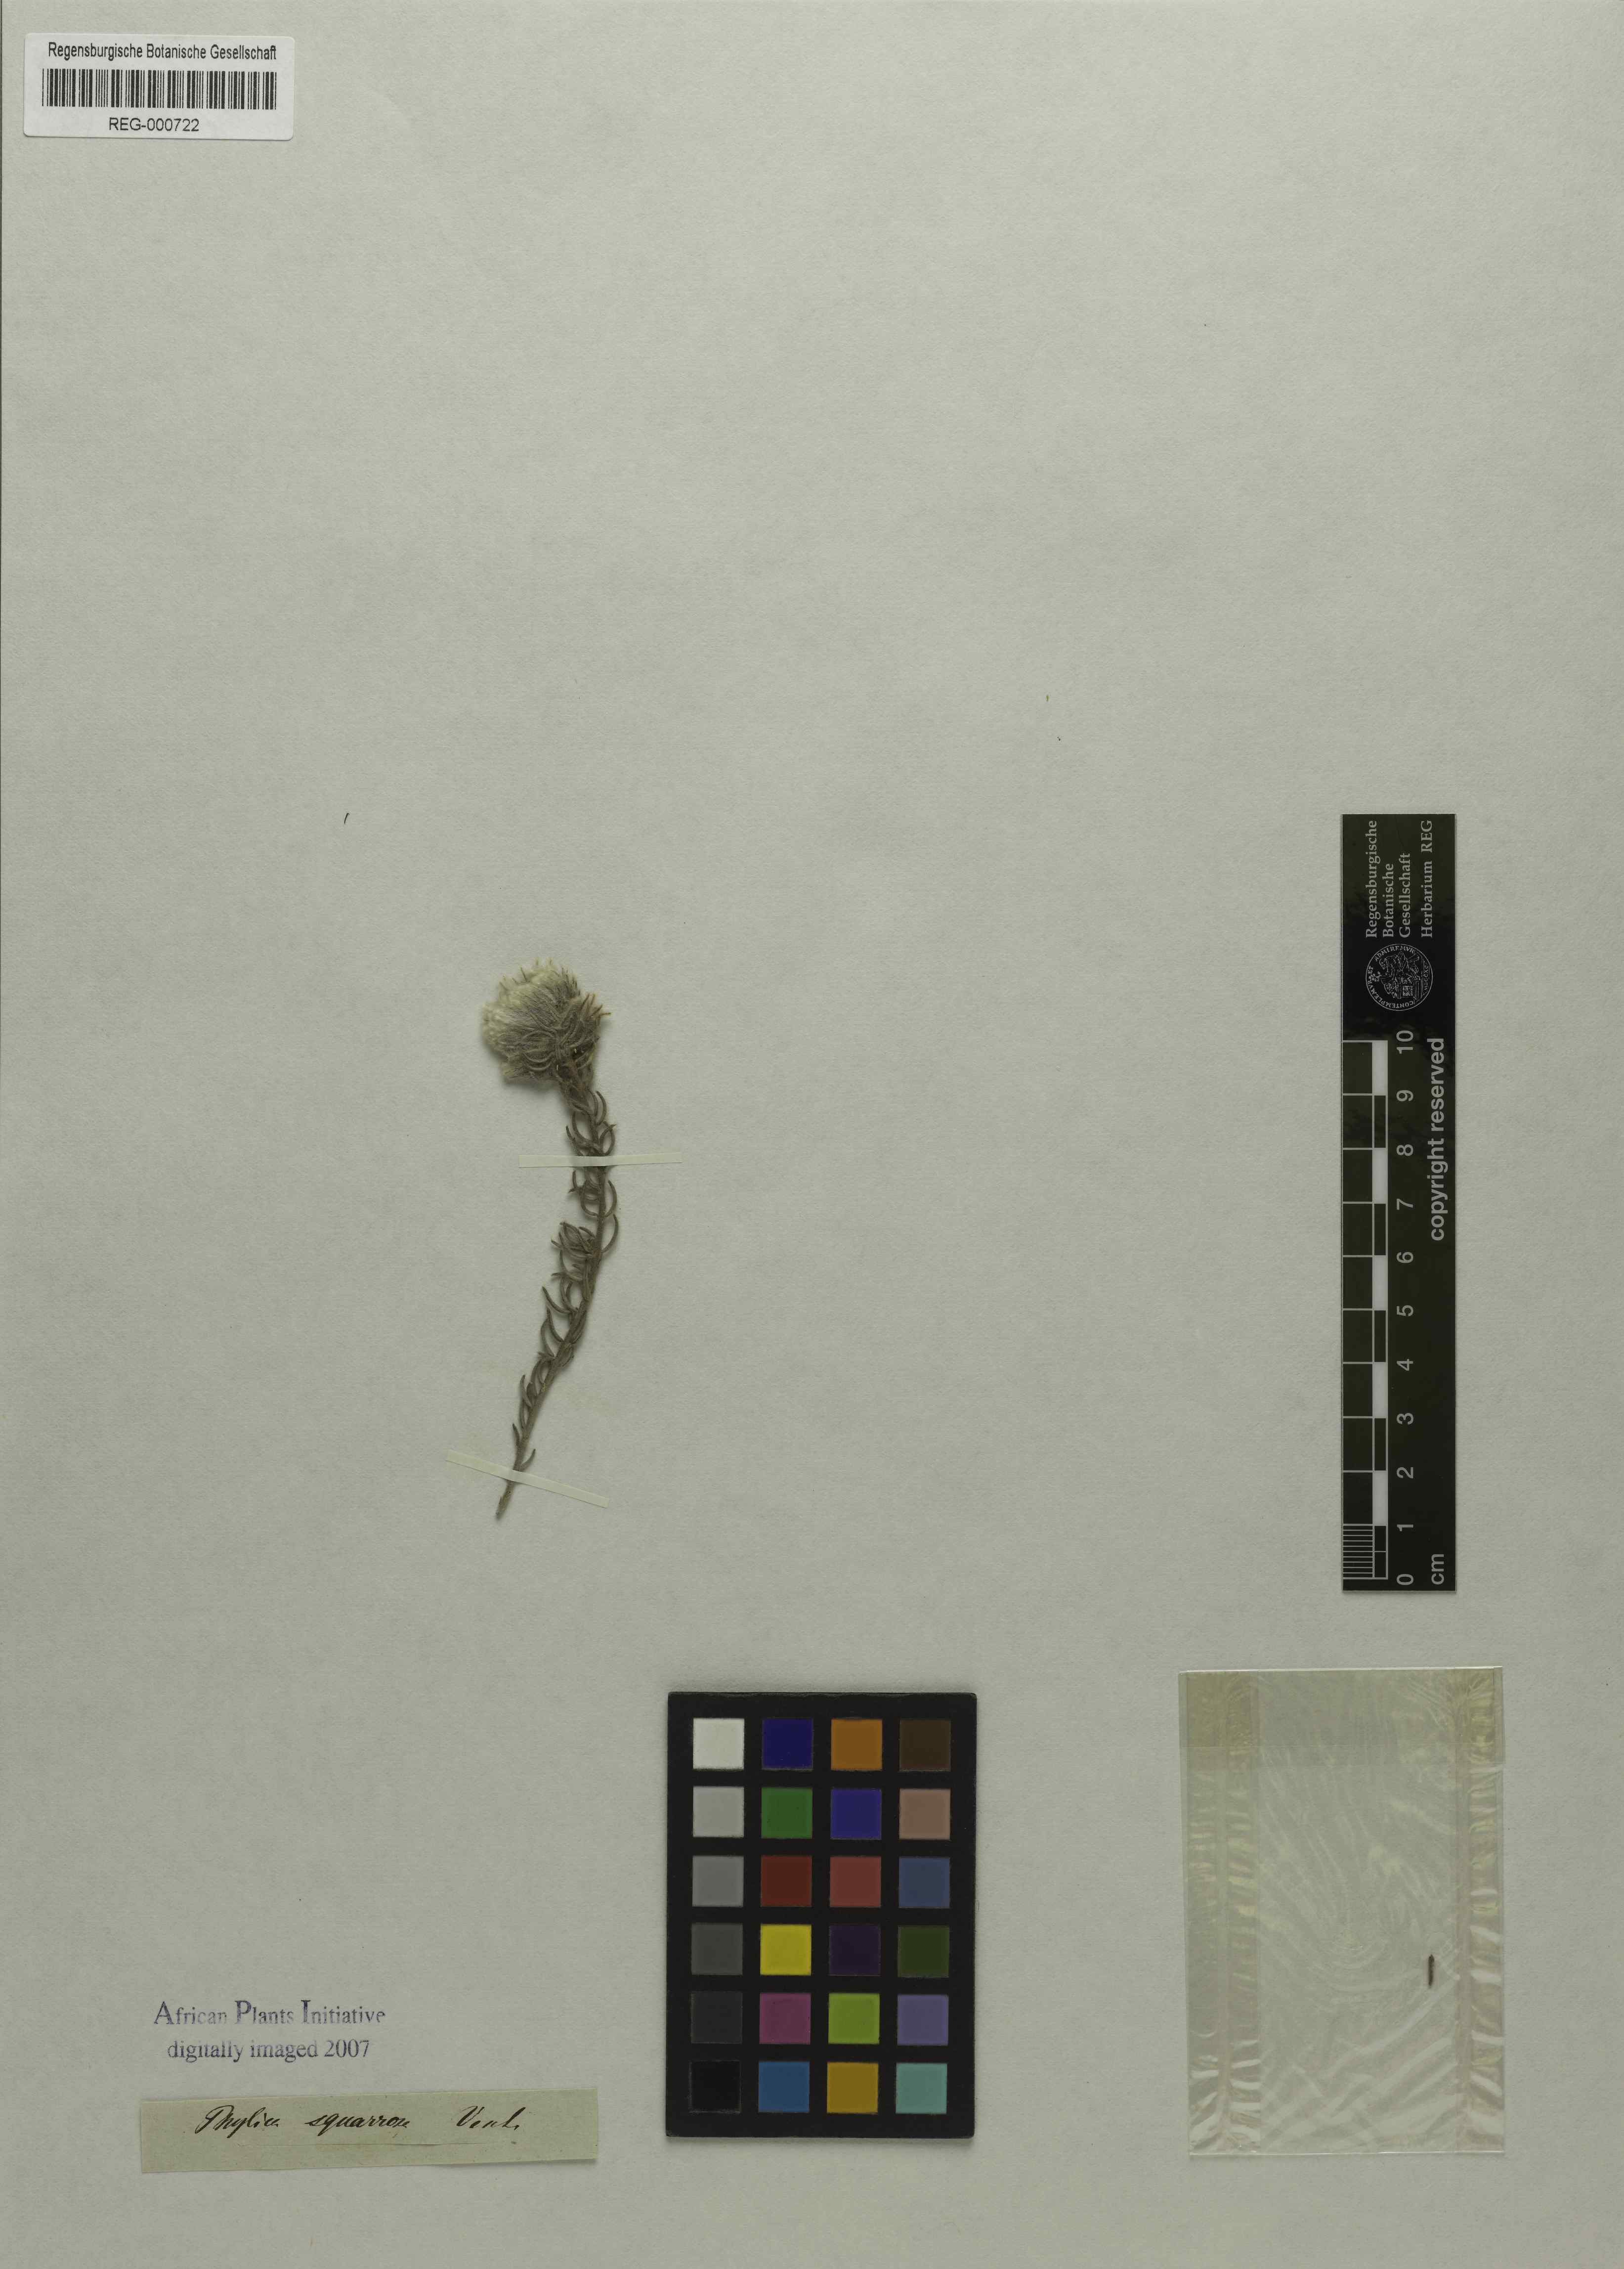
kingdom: Plantae
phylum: Tracheophyta
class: Magnoliopsida
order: Rosales
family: Rhamnaceae
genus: Phylica
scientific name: Phylica plumosa
